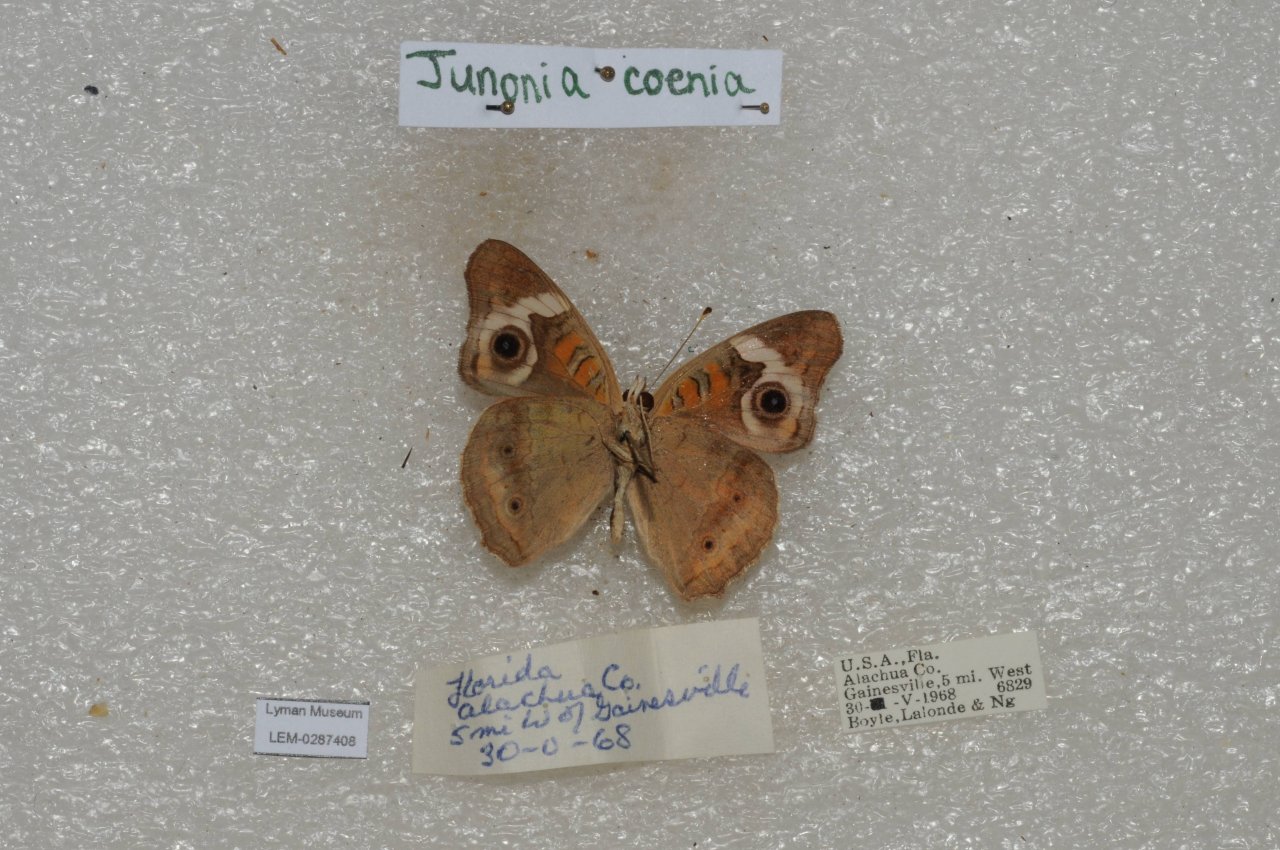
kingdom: Animalia
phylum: Arthropoda
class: Insecta
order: Lepidoptera
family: Nymphalidae
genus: Junonia
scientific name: Junonia coenia
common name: Common Buckeye
